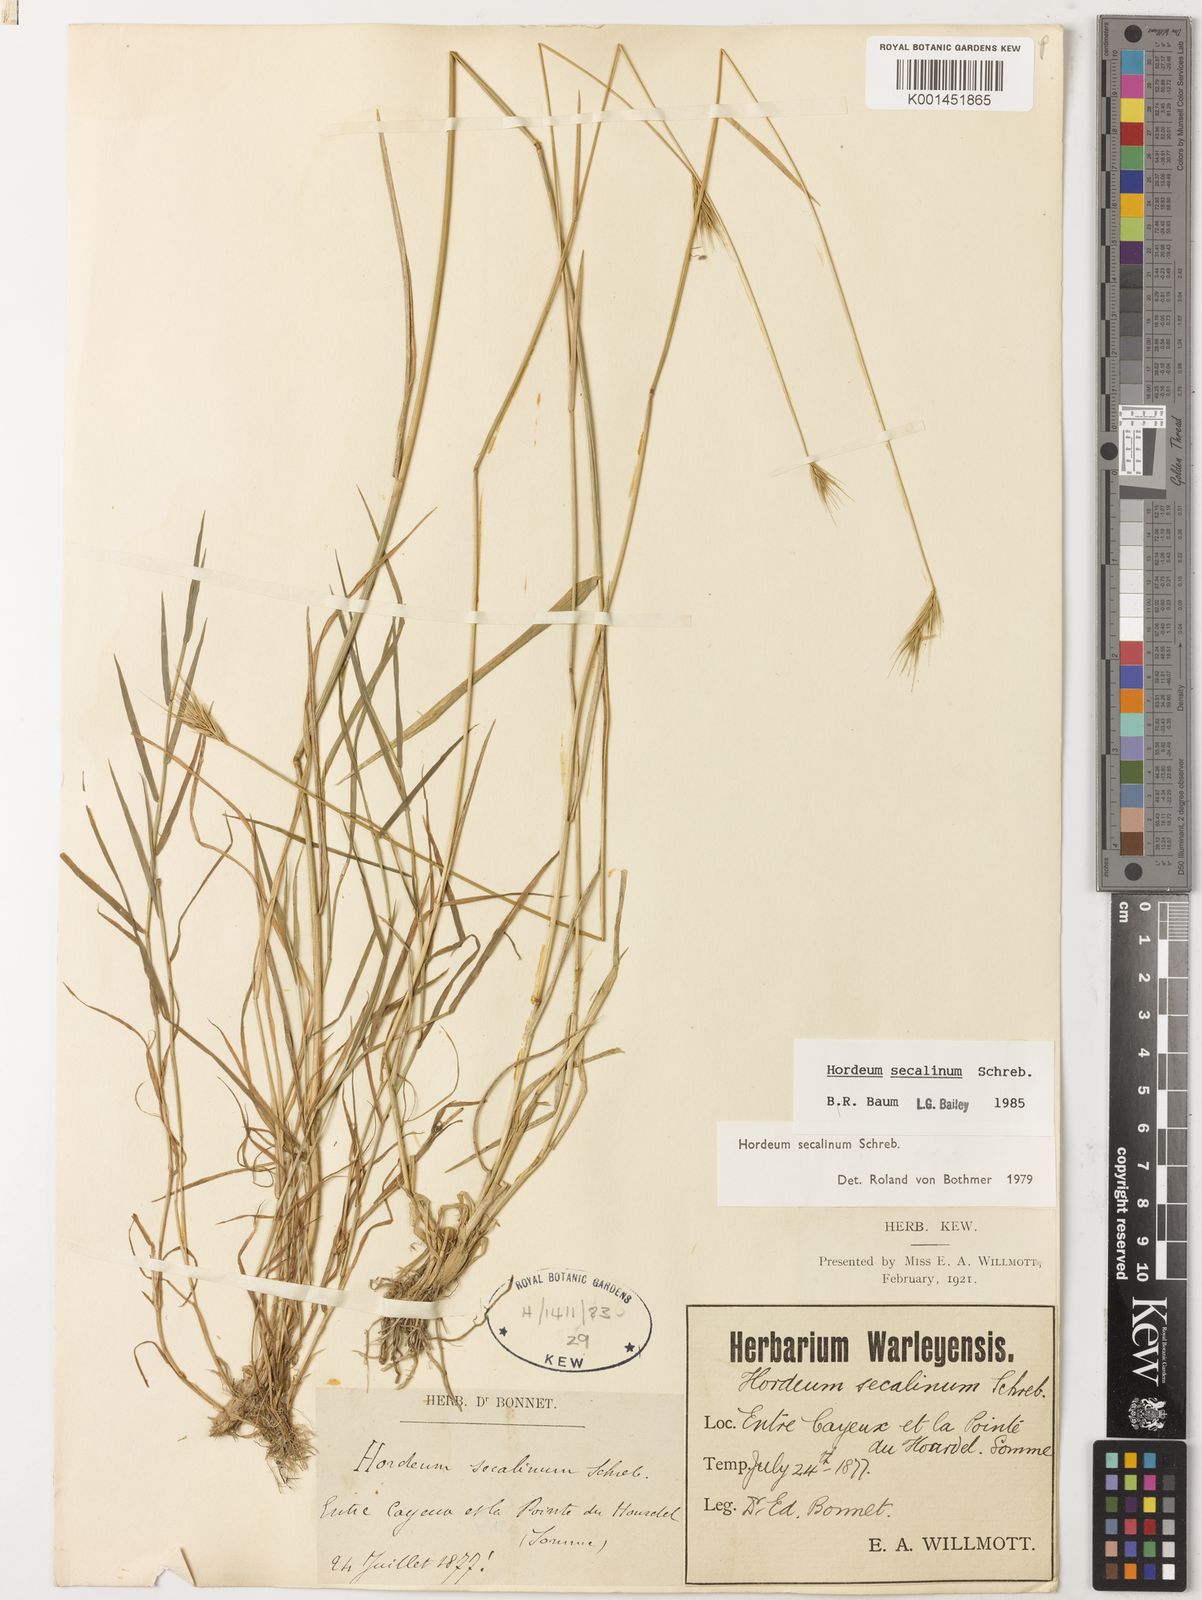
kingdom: Plantae
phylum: Tracheophyta
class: Liliopsida
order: Poales
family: Poaceae
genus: Hordeum
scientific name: Hordeum secalinum
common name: Meadow barley
